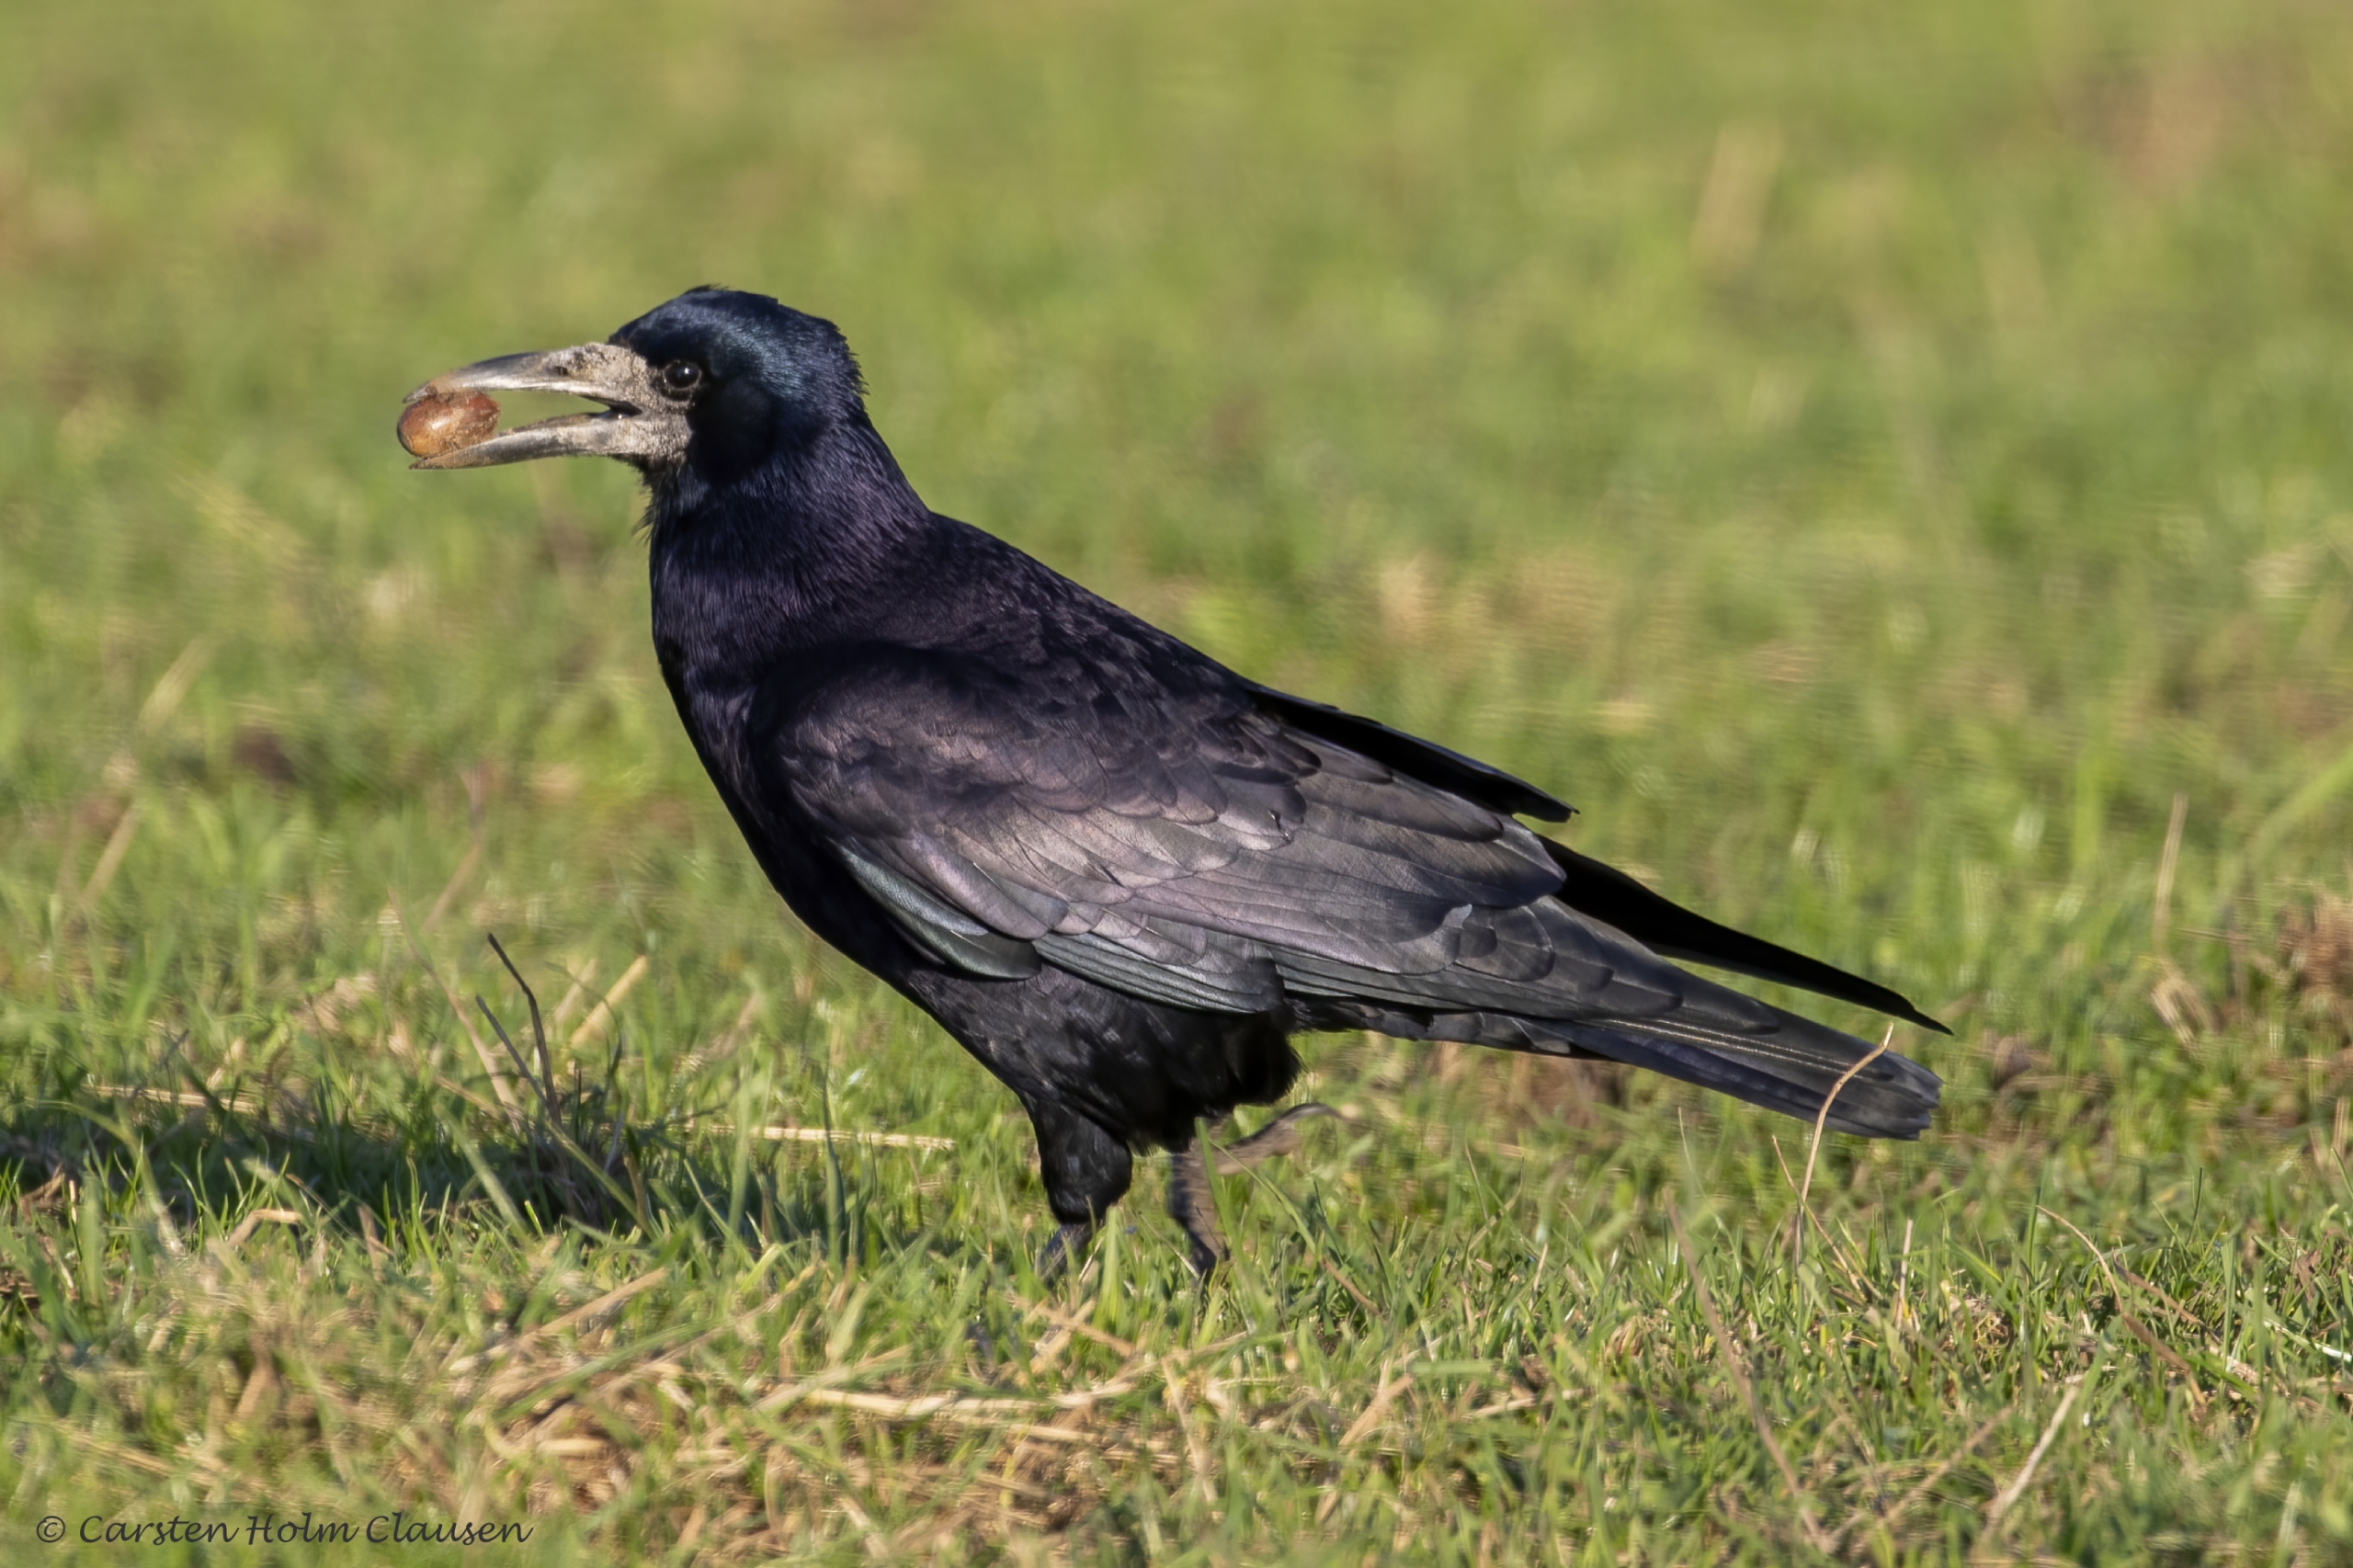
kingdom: Animalia
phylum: Chordata
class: Aves
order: Passeriformes
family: Corvidae
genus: Corvus
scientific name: Corvus frugilegus
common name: Råge
